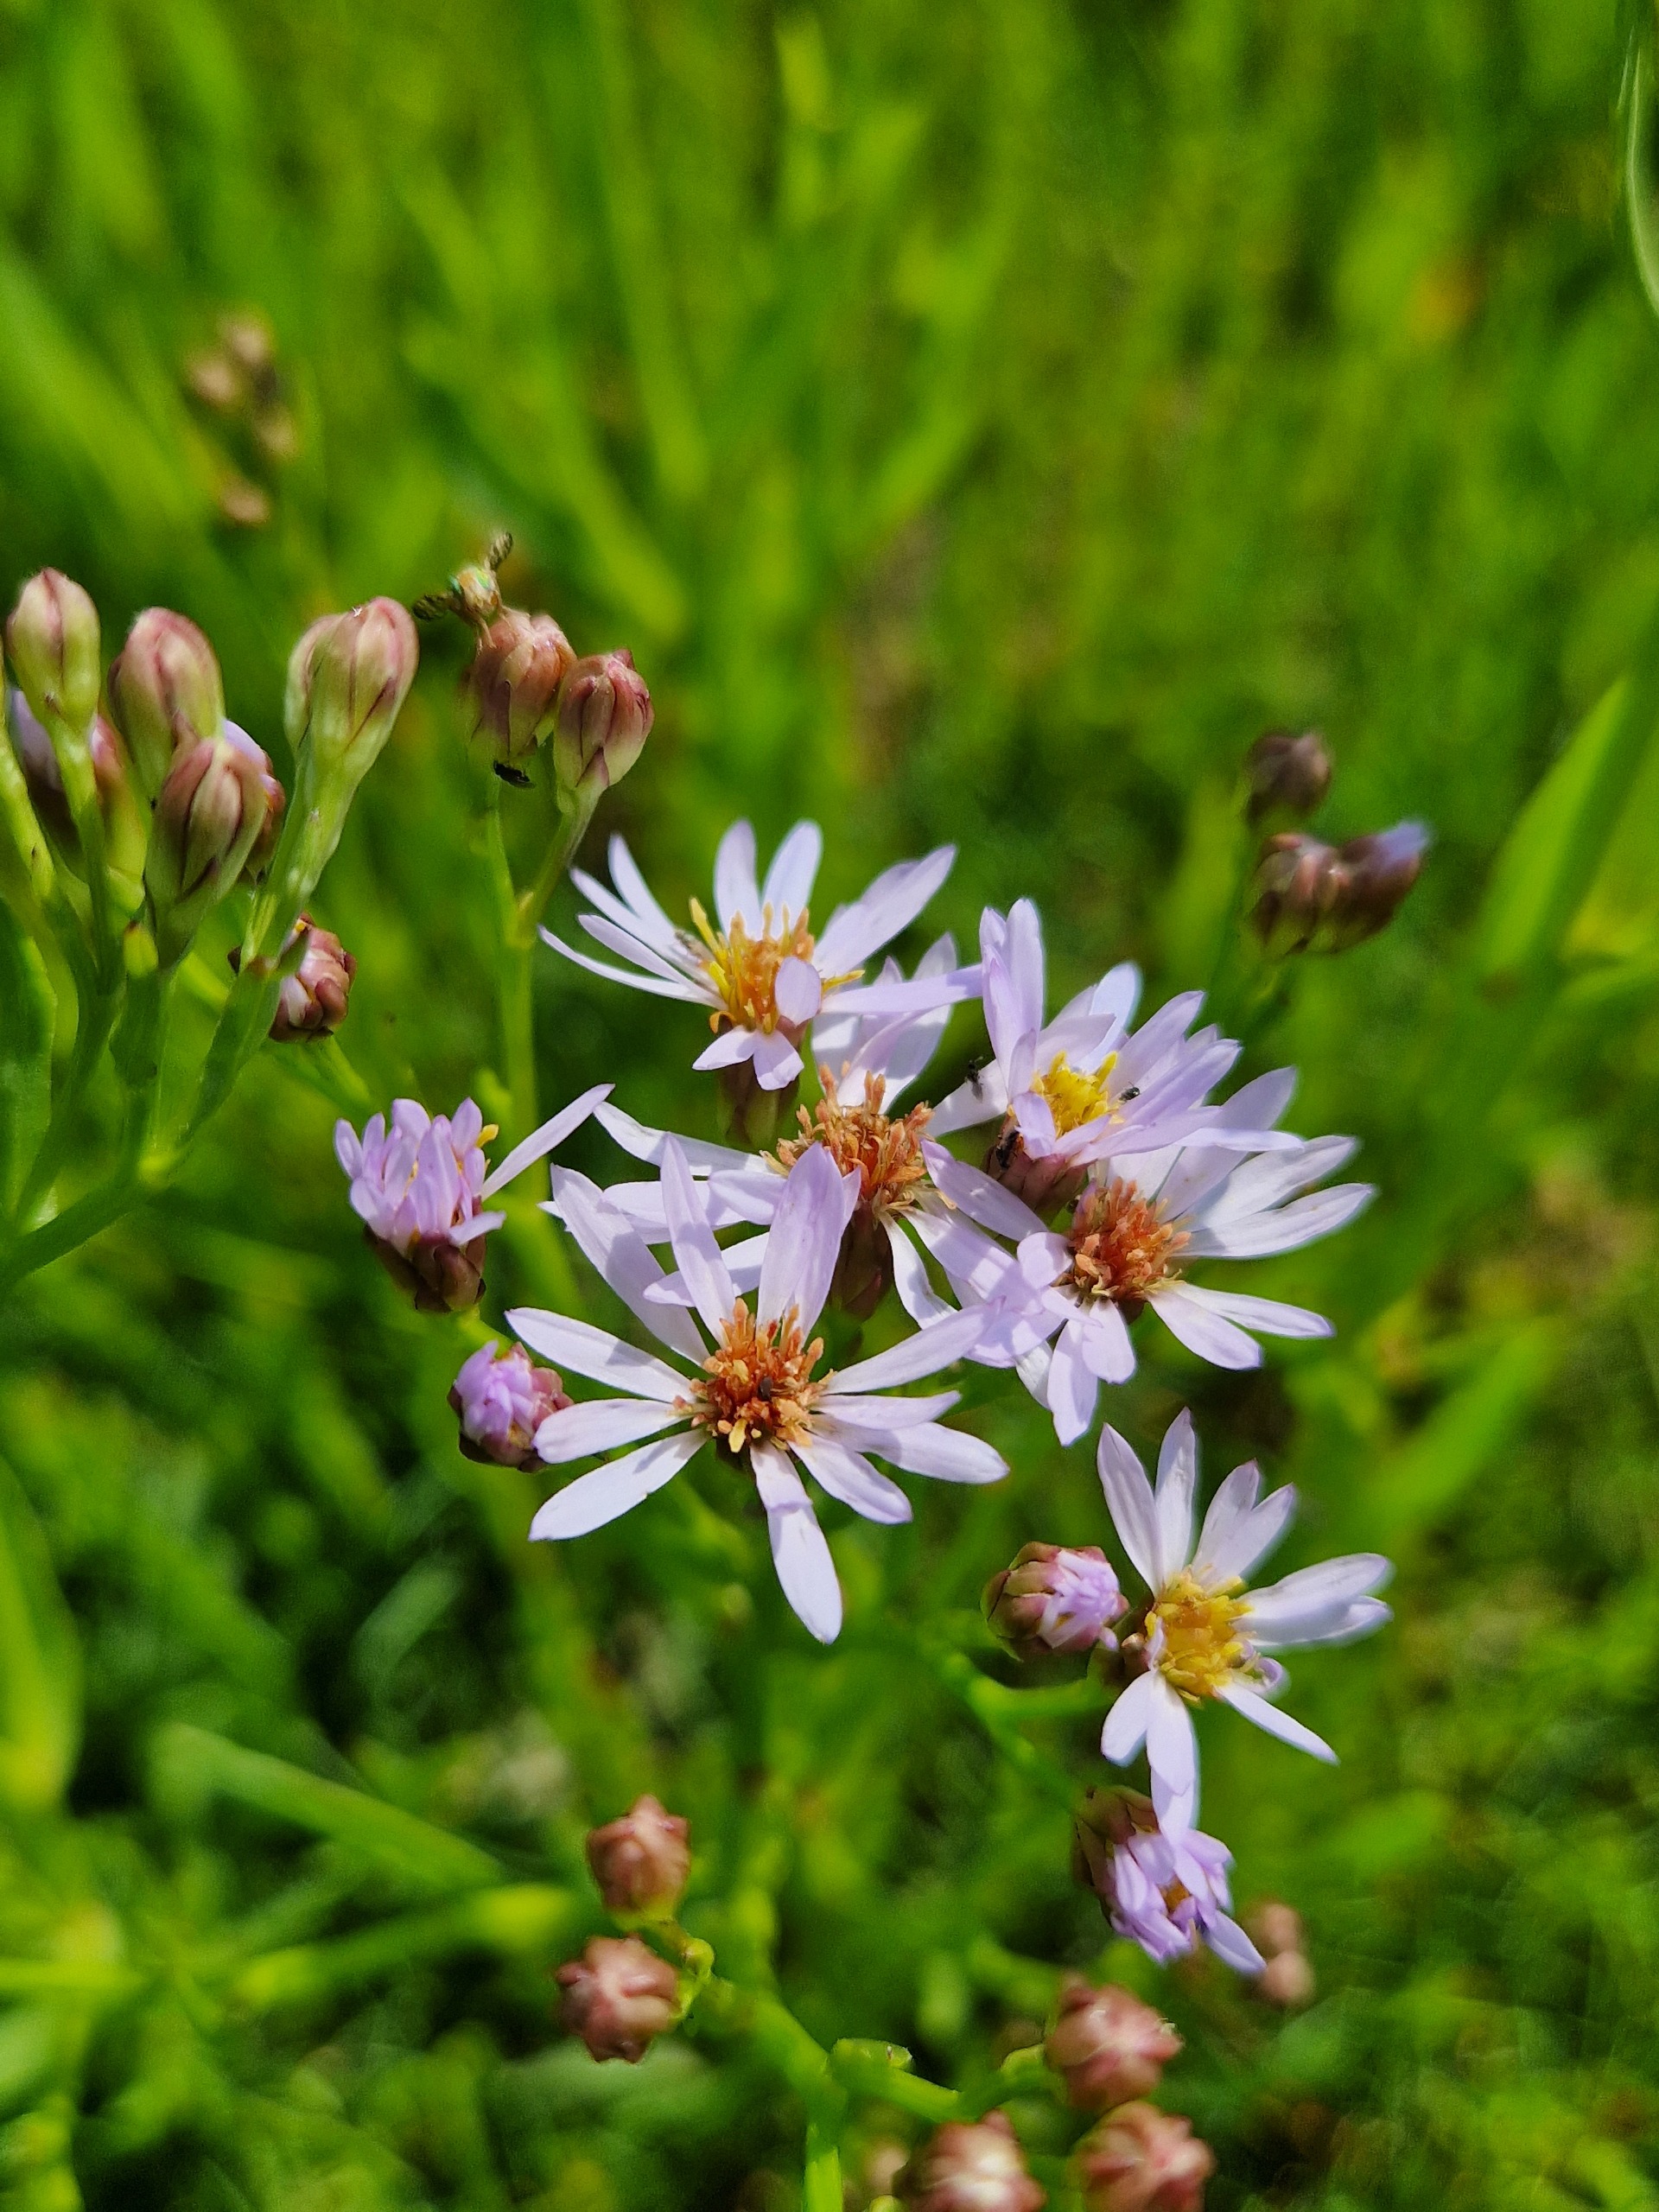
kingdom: Plantae
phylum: Tracheophyta
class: Magnoliopsida
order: Asterales
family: Asteraceae
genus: Tripolium
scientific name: Tripolium pannonicum
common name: Strandasters
